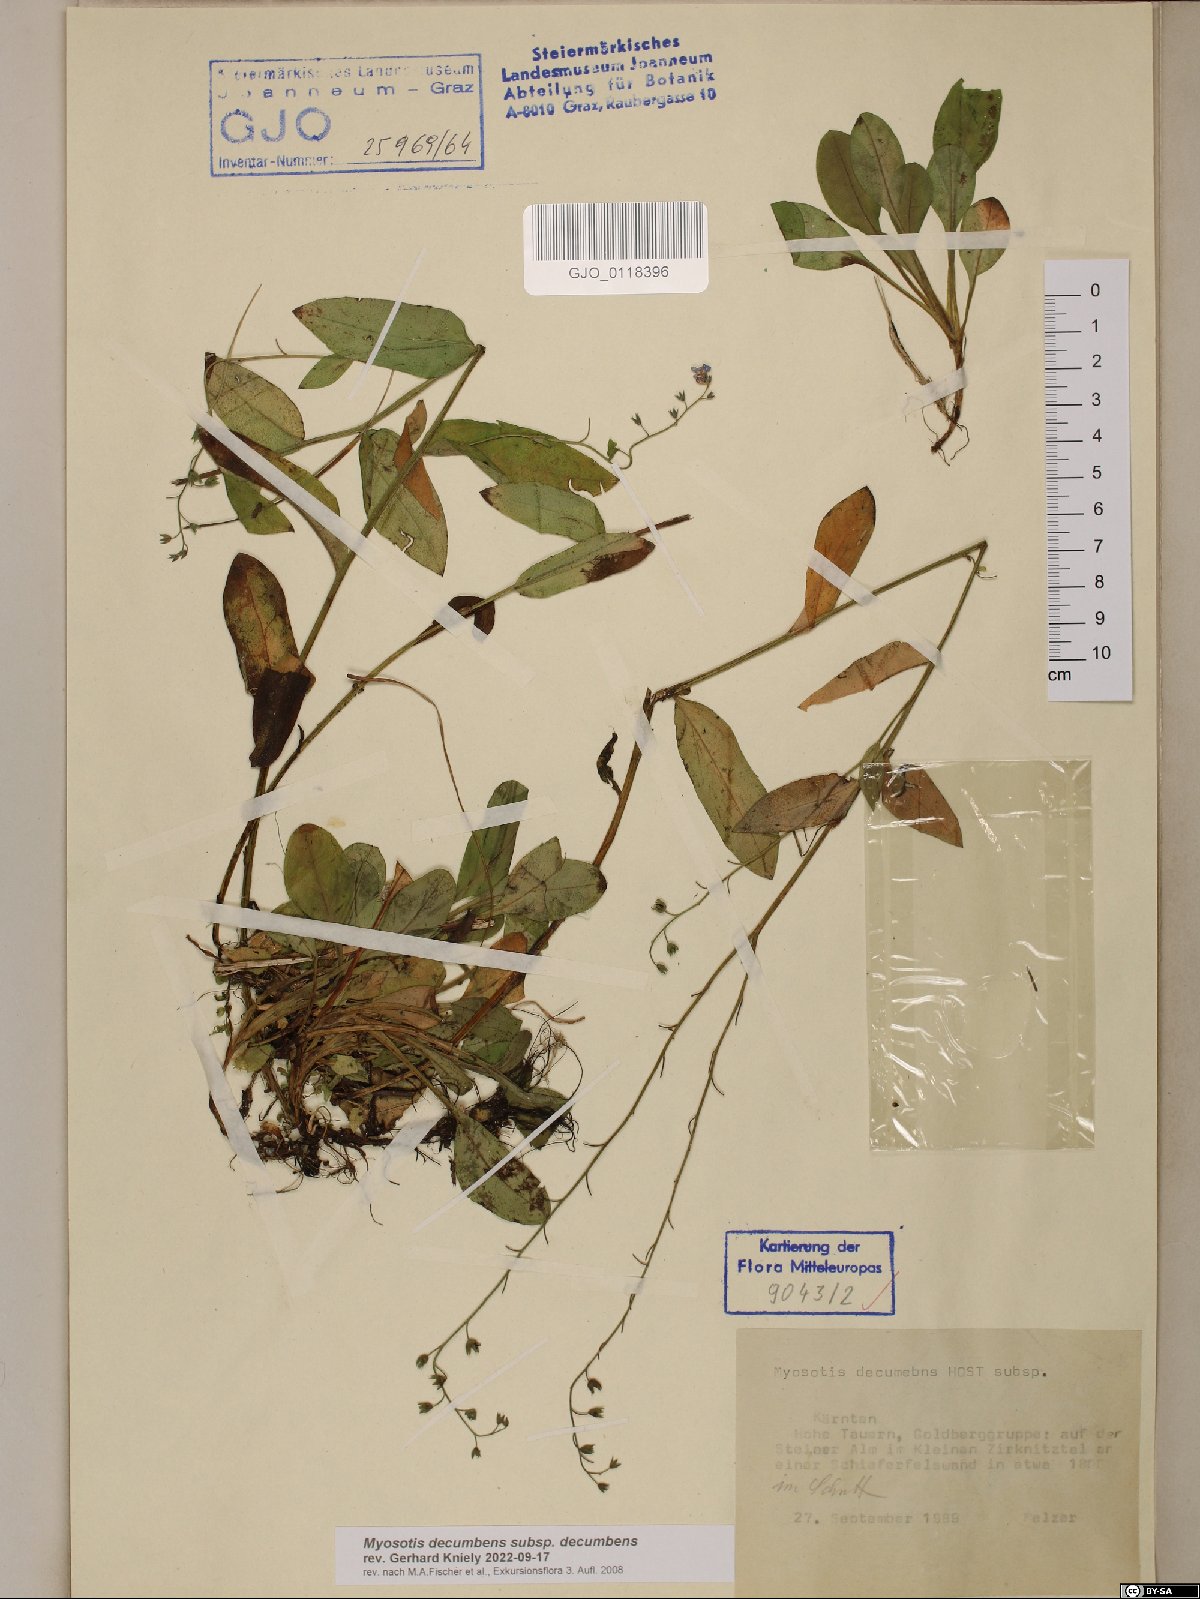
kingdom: Plantae
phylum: Tracheophyta
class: Magnoliopsida
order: Boraginales
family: Boraginaceae
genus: Myosotis
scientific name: Myosotis decumbens
